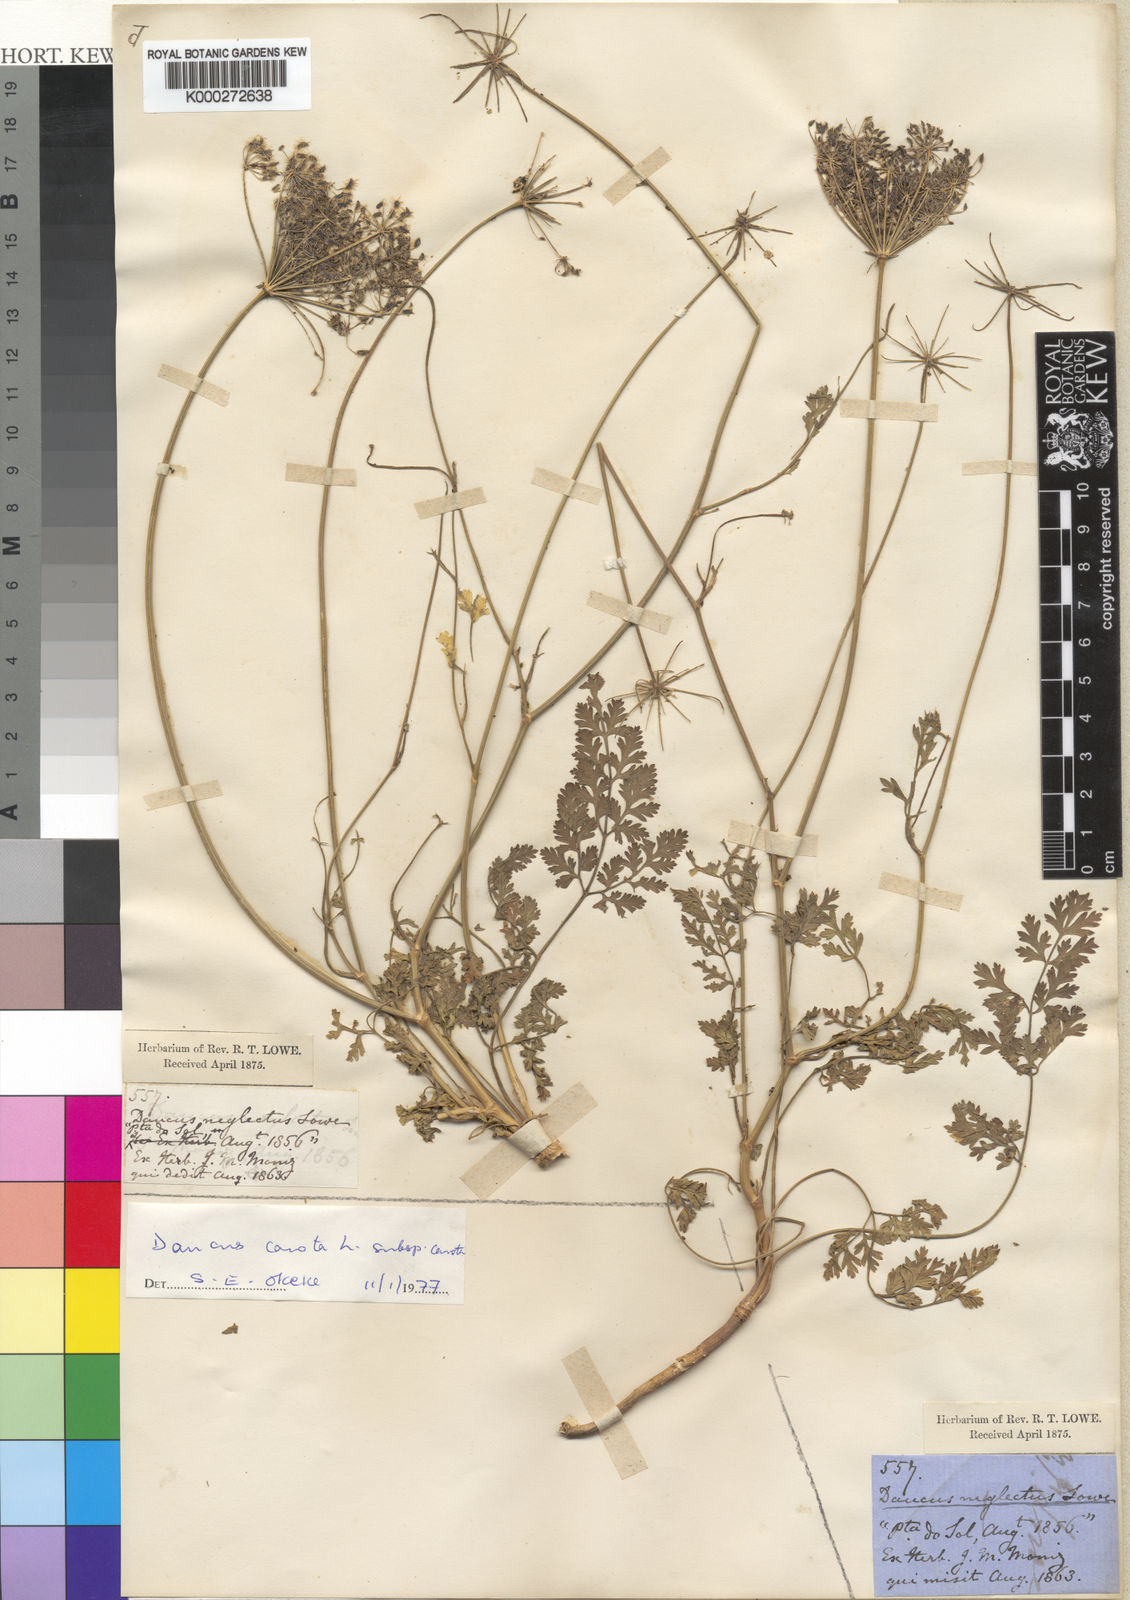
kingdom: Plantae
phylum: Tracheophyta
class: Magnoliopsida
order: Apiales
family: Apiaceae
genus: Daucus
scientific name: Daucus carota
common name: Wild carrot
